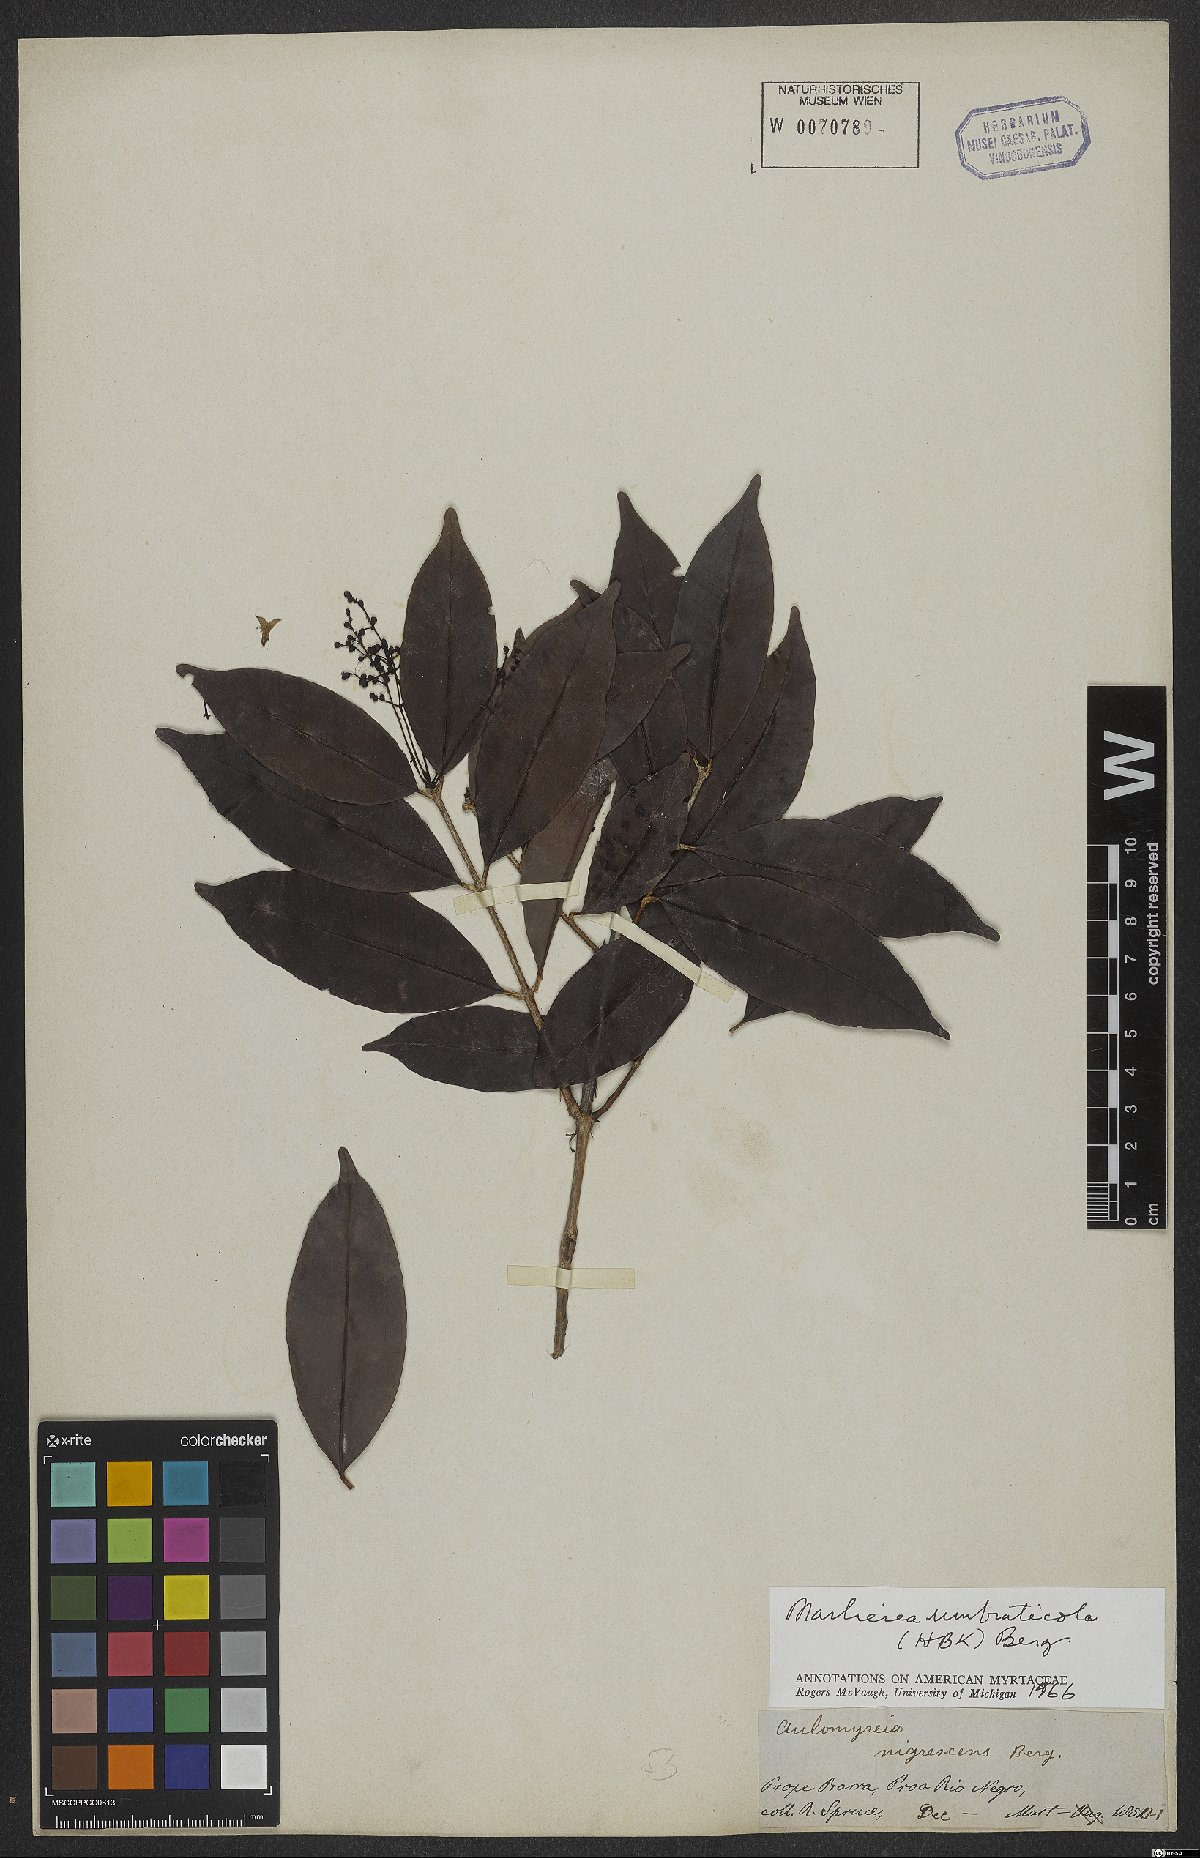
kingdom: Plantae
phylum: Tracheophyta
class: Magnoliopsida
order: Myrtales
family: Myrtaceae
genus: Myrcia
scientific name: Myrcia umbraticola
